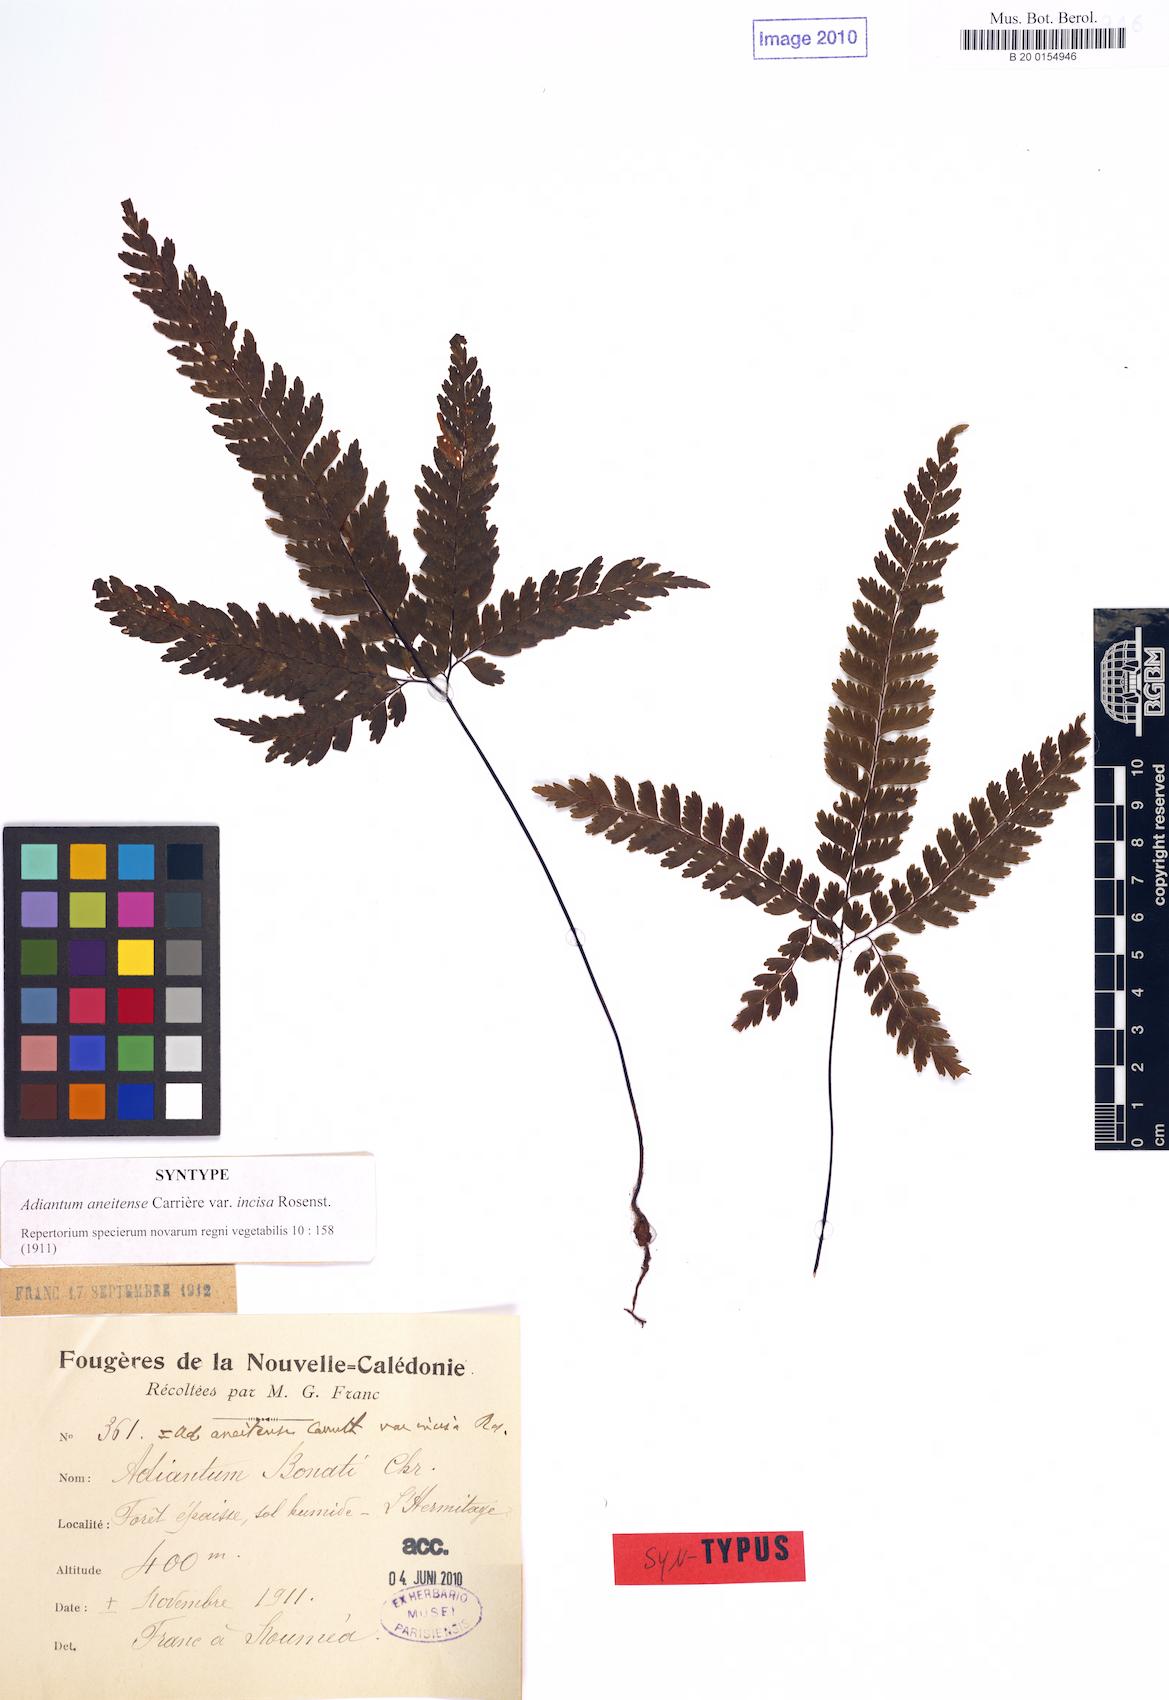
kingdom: Plantae
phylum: Tracheophyta
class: Polypodiopsida
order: Polypodiales
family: Pteridaceae
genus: Adiantum
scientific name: Adiantum novae-caledoniae
